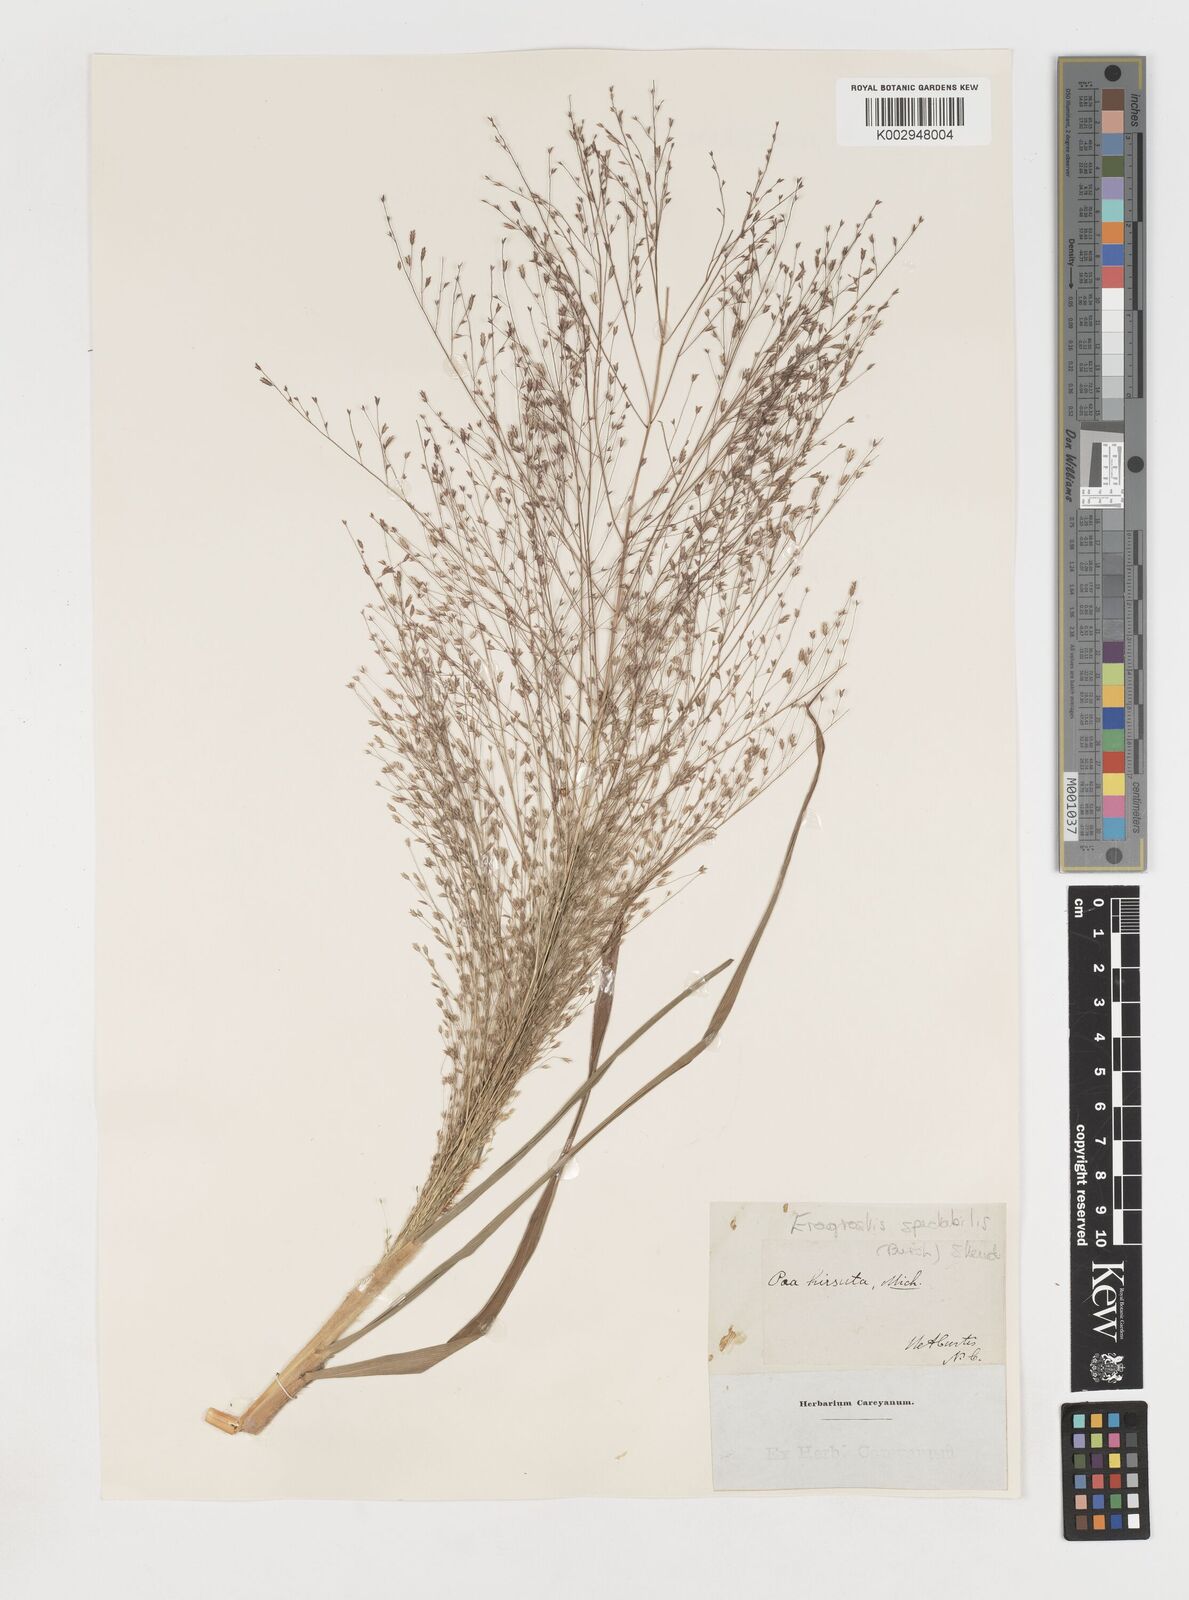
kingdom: Plantae
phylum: Tracheophyta
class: Liliopsida
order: Poales
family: Poaceae
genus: Eragrostis
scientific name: Eragrostis spectabilis
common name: Petticoat-climber
